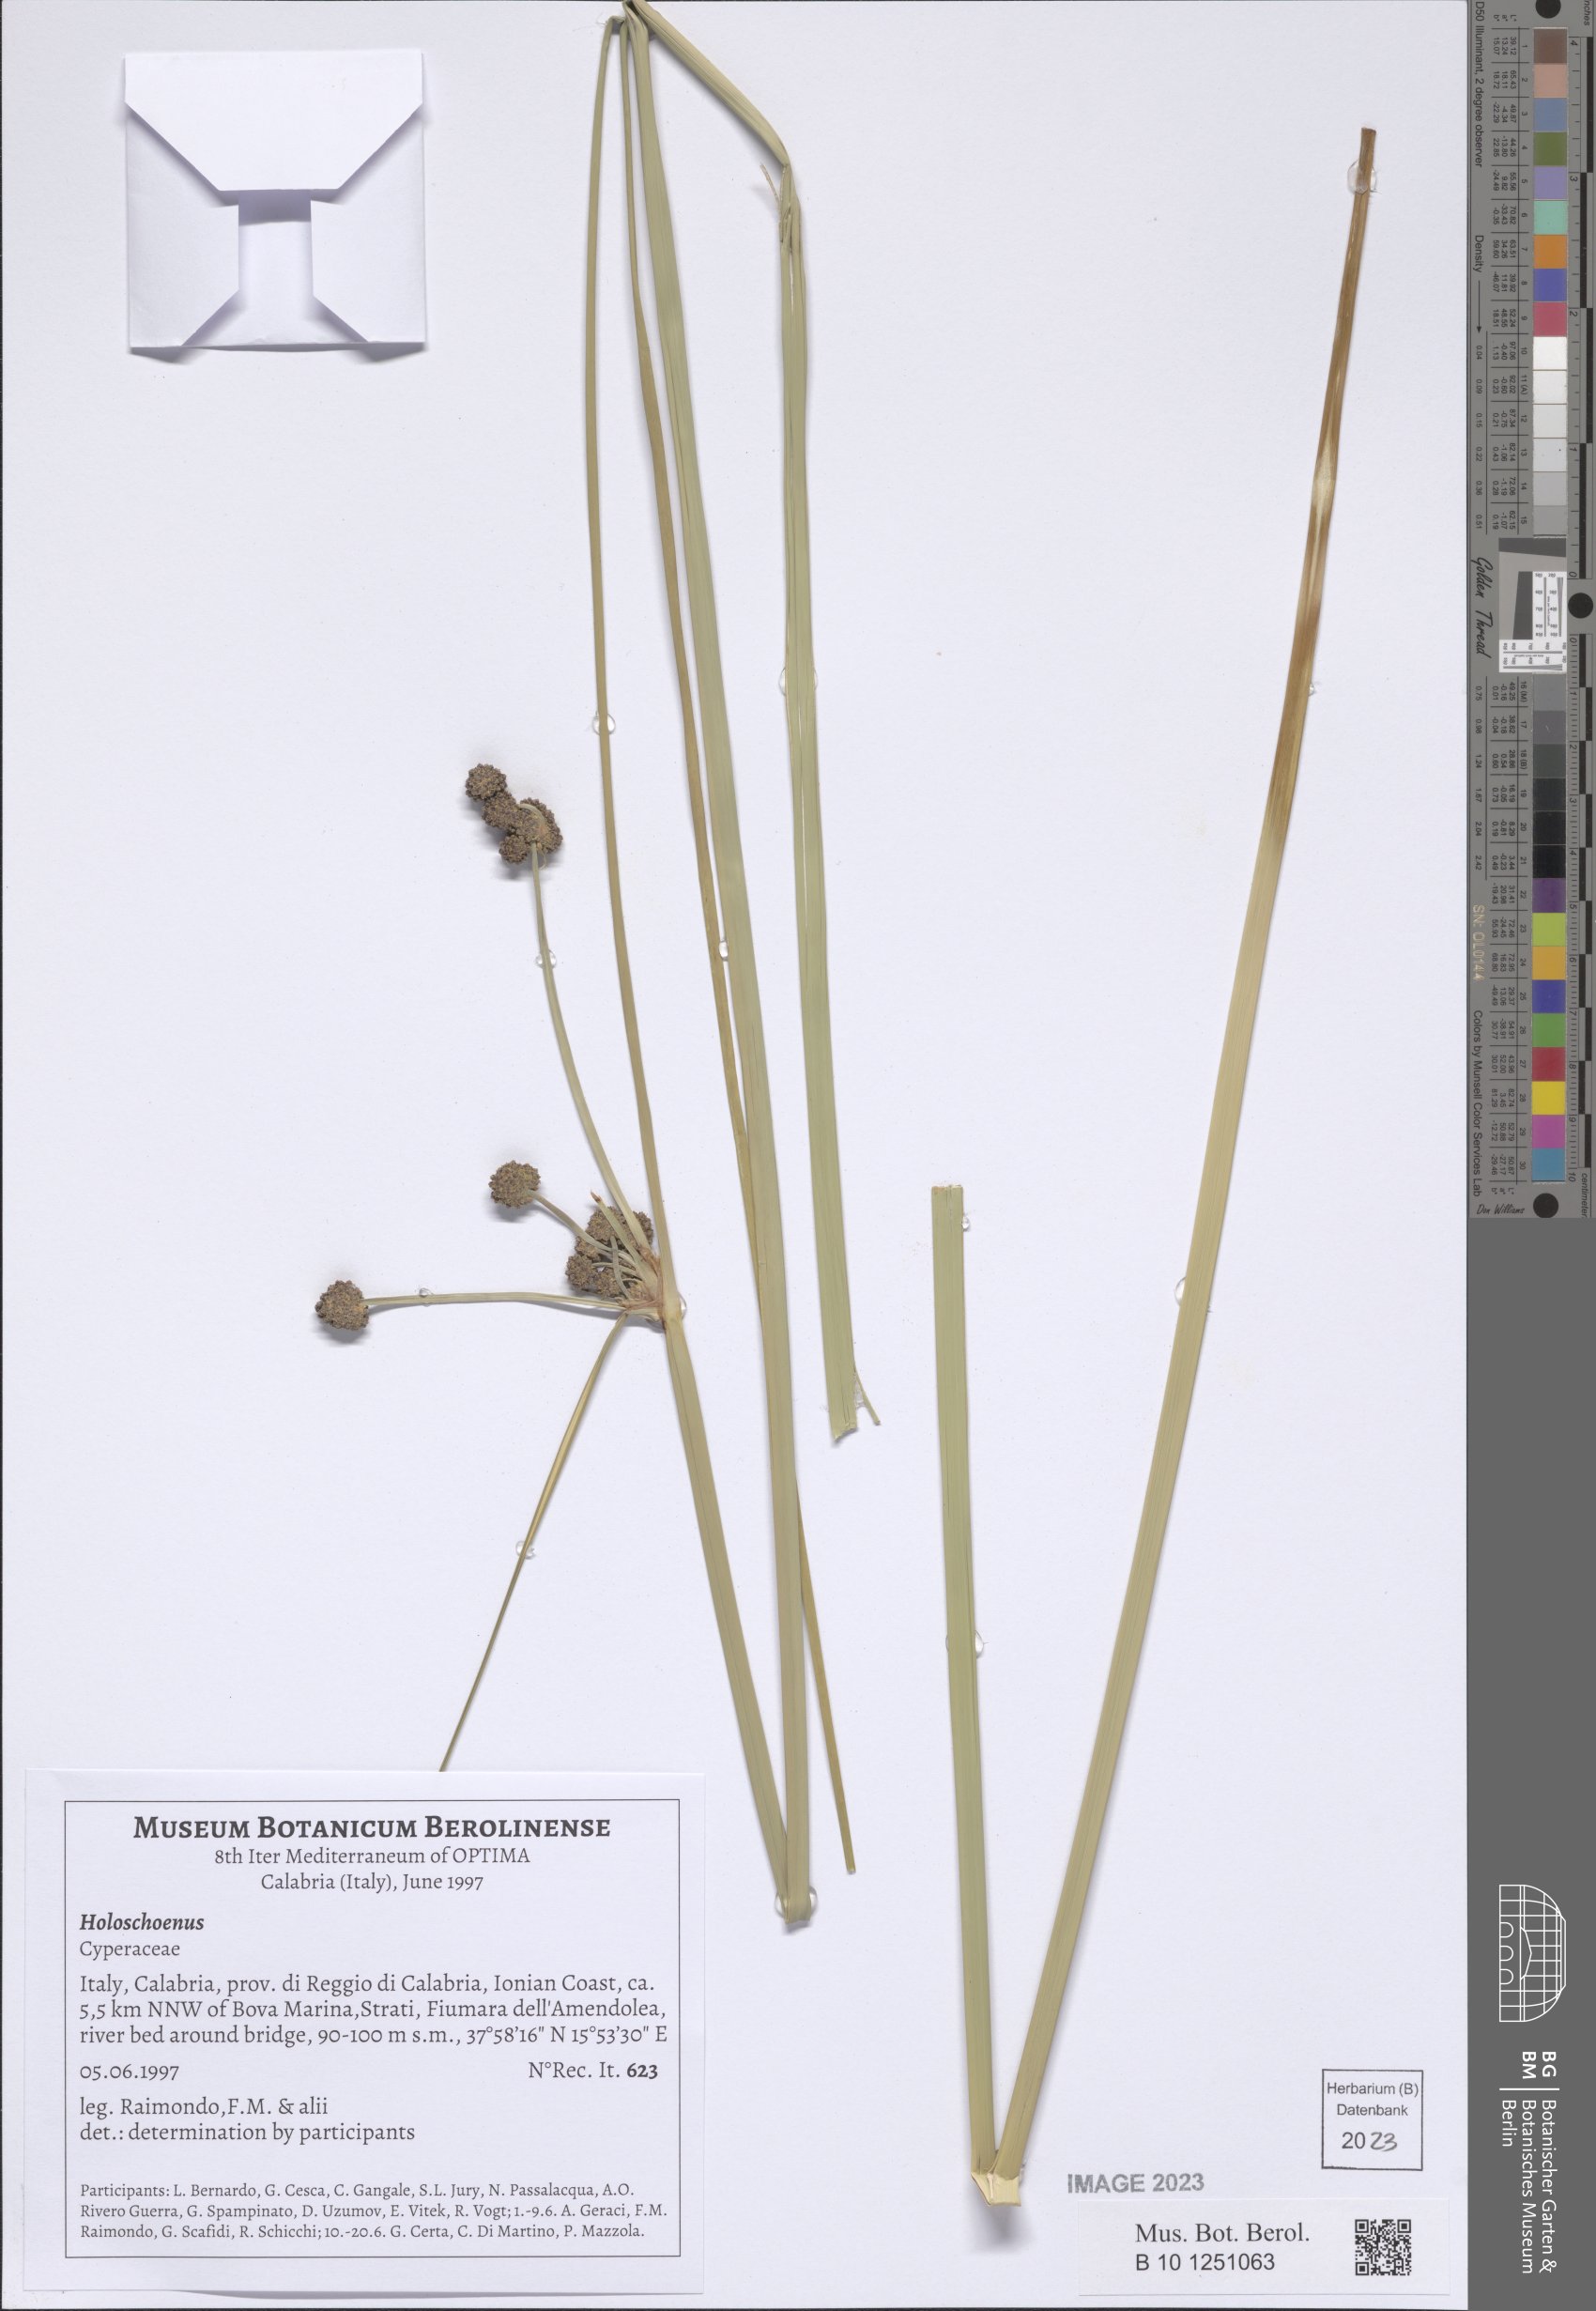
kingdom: Plantae
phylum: Tracheophyta
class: Liliopsida
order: Poales
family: Cyperaceae
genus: Scirpoides
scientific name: Scirpoides
